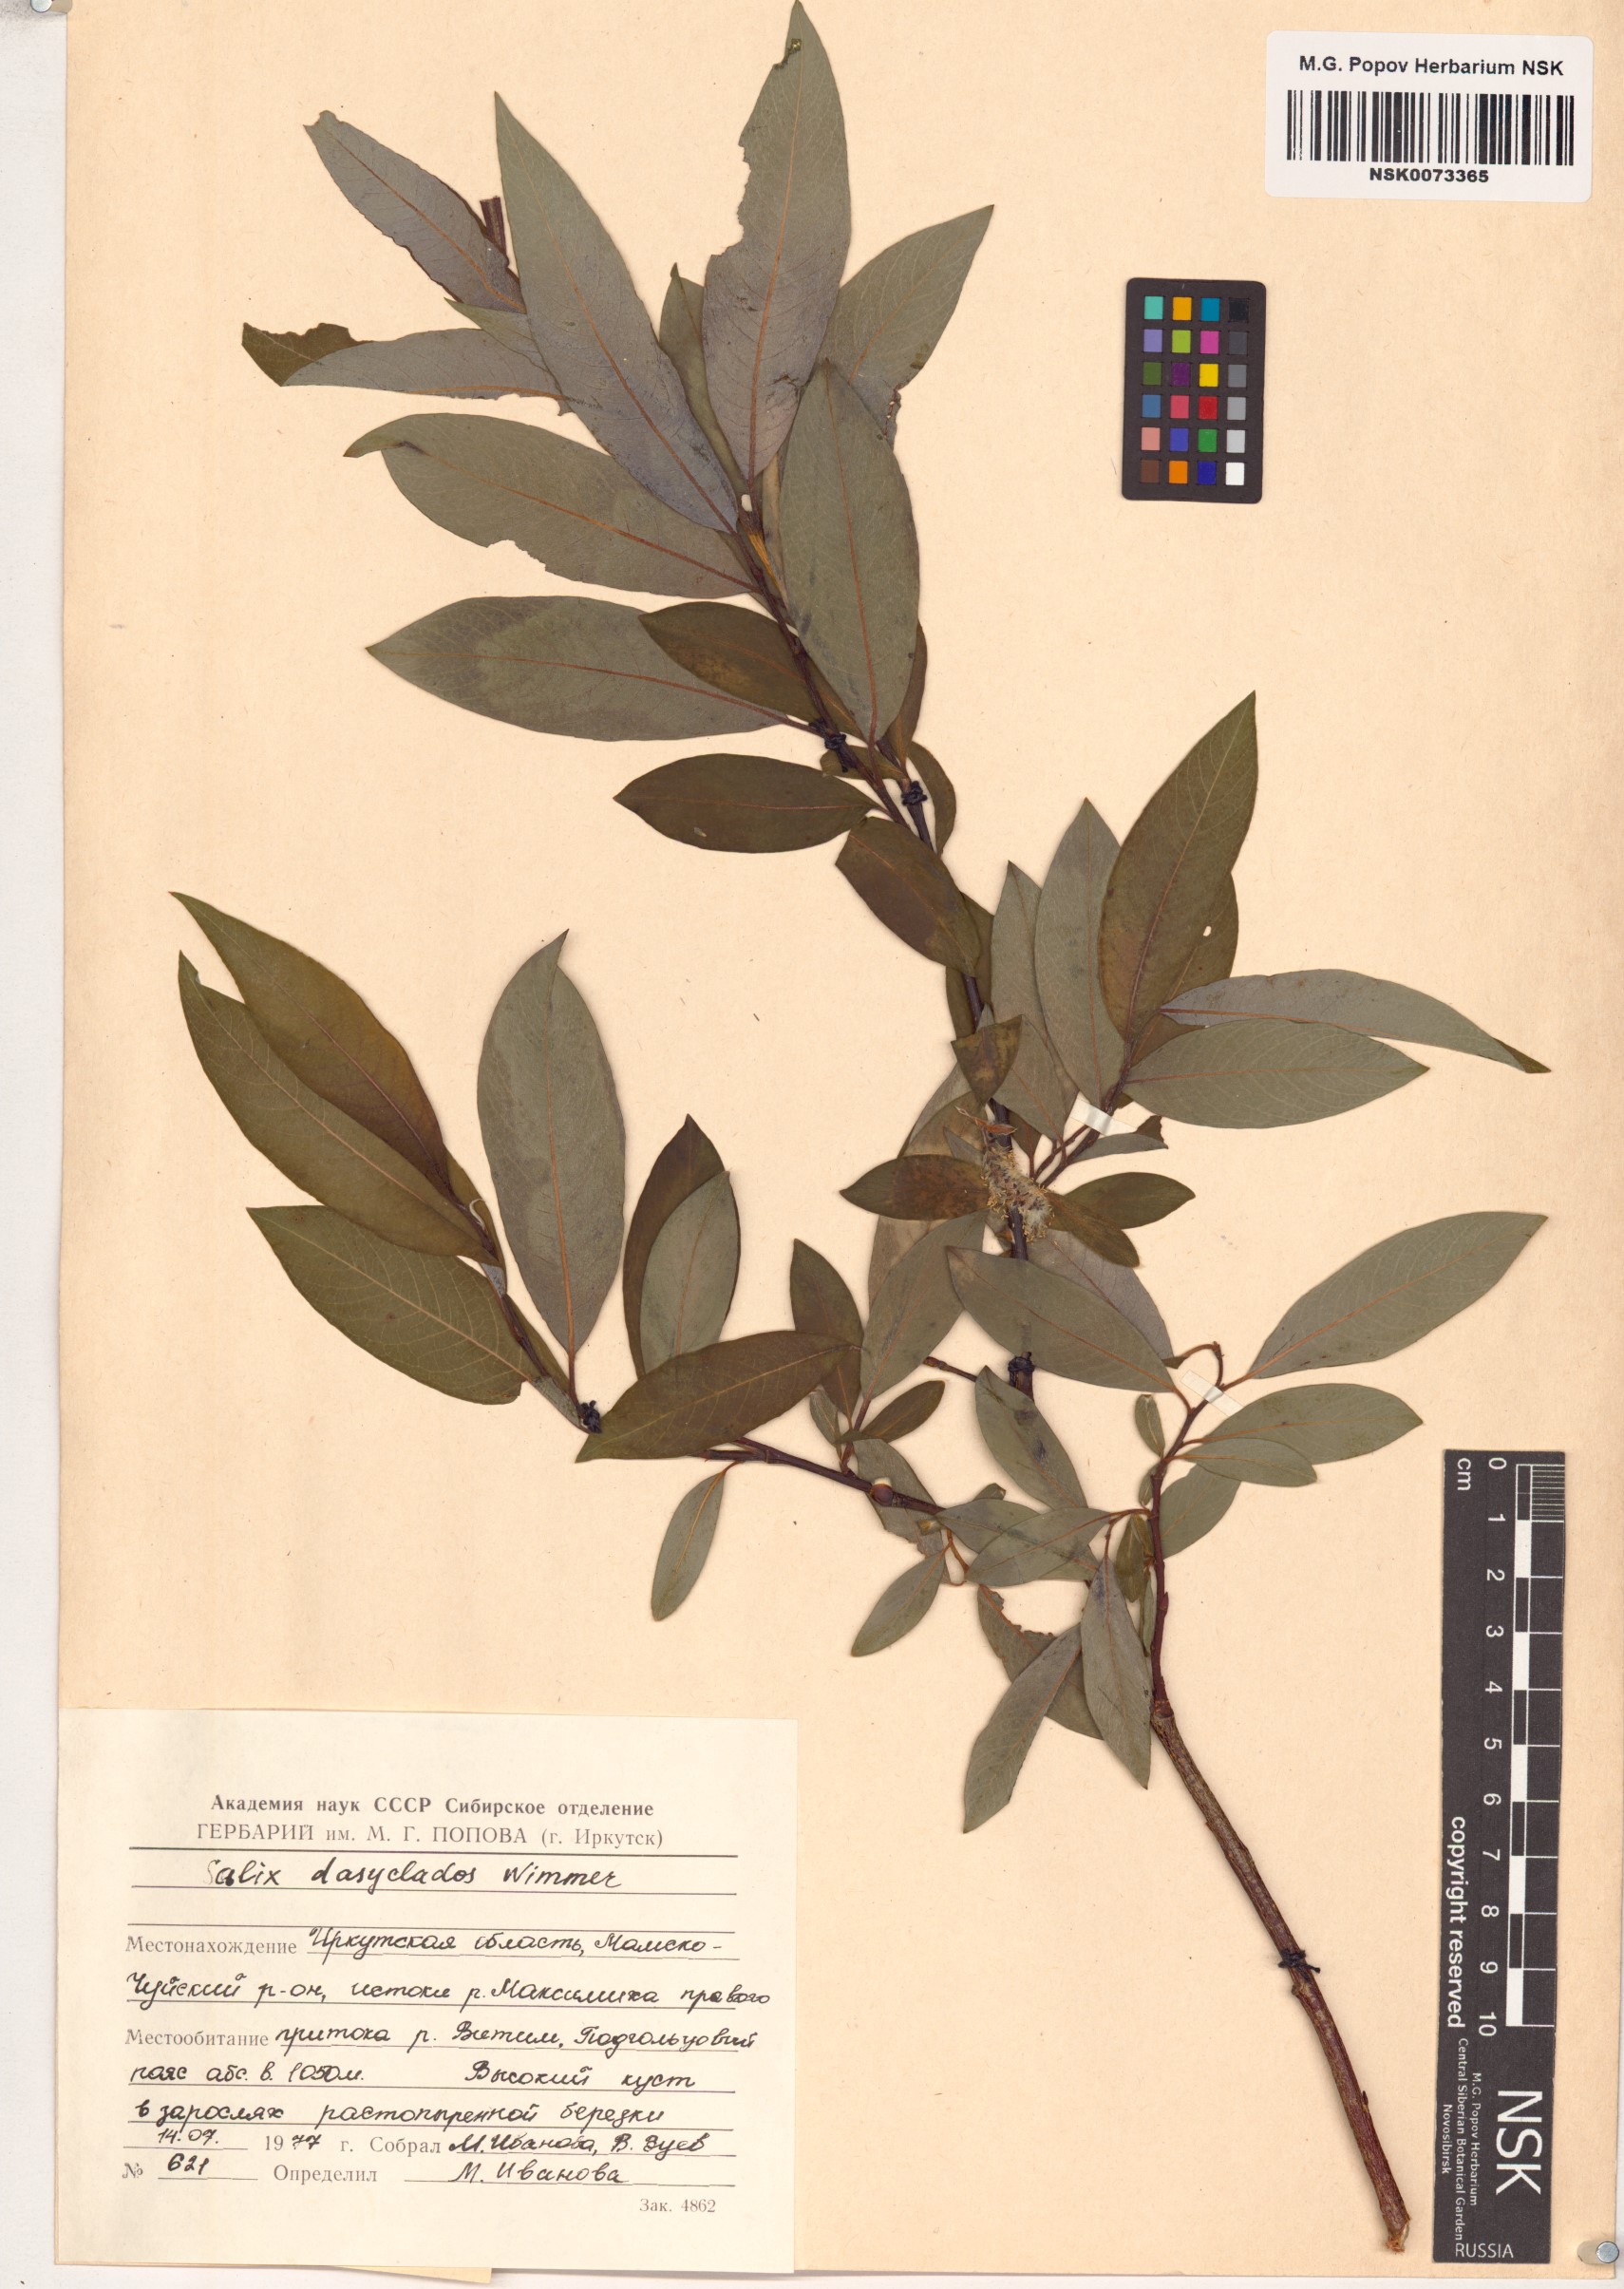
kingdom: Plantae
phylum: Tracheophyta
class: Magnoliopsida
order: Malpighiales
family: Salicaceae
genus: Salix
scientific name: Salix gmelinii
